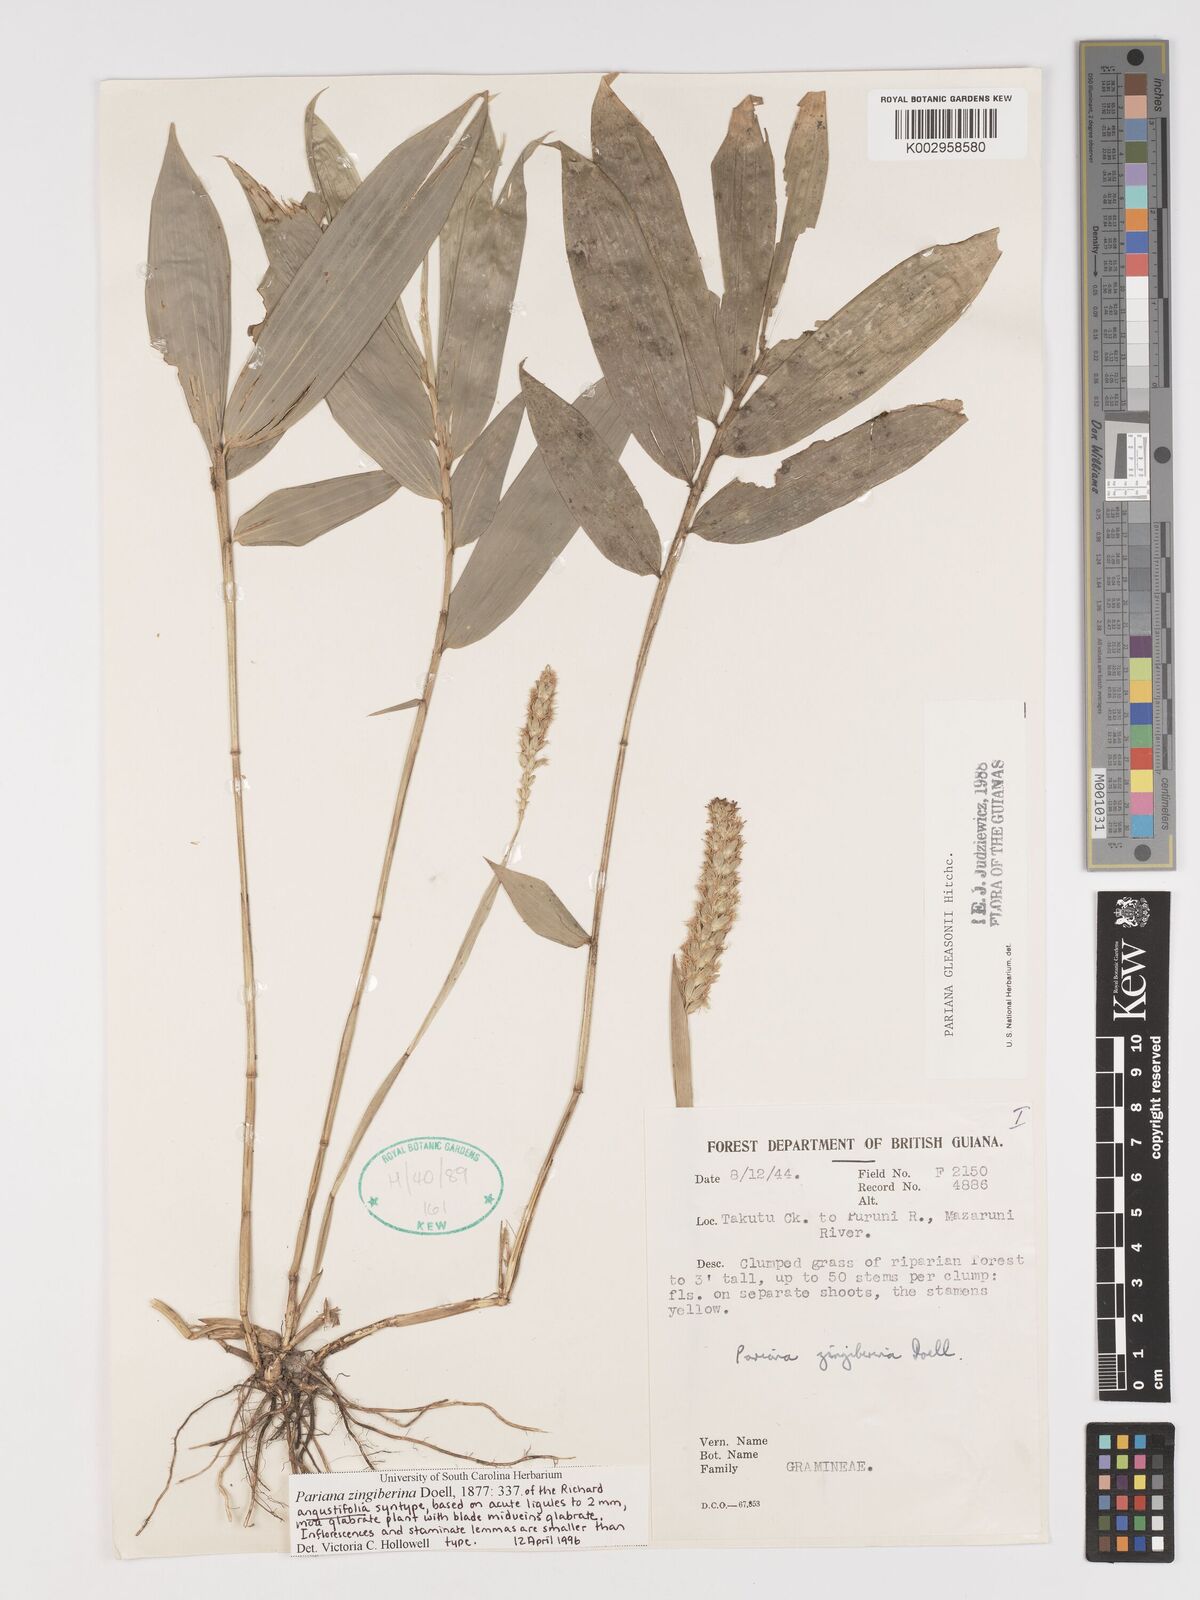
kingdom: Plantae
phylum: Tracheophyta
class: Liliopsida
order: Poales
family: Poaceae
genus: Pariana
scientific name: Pariana radiciflora
